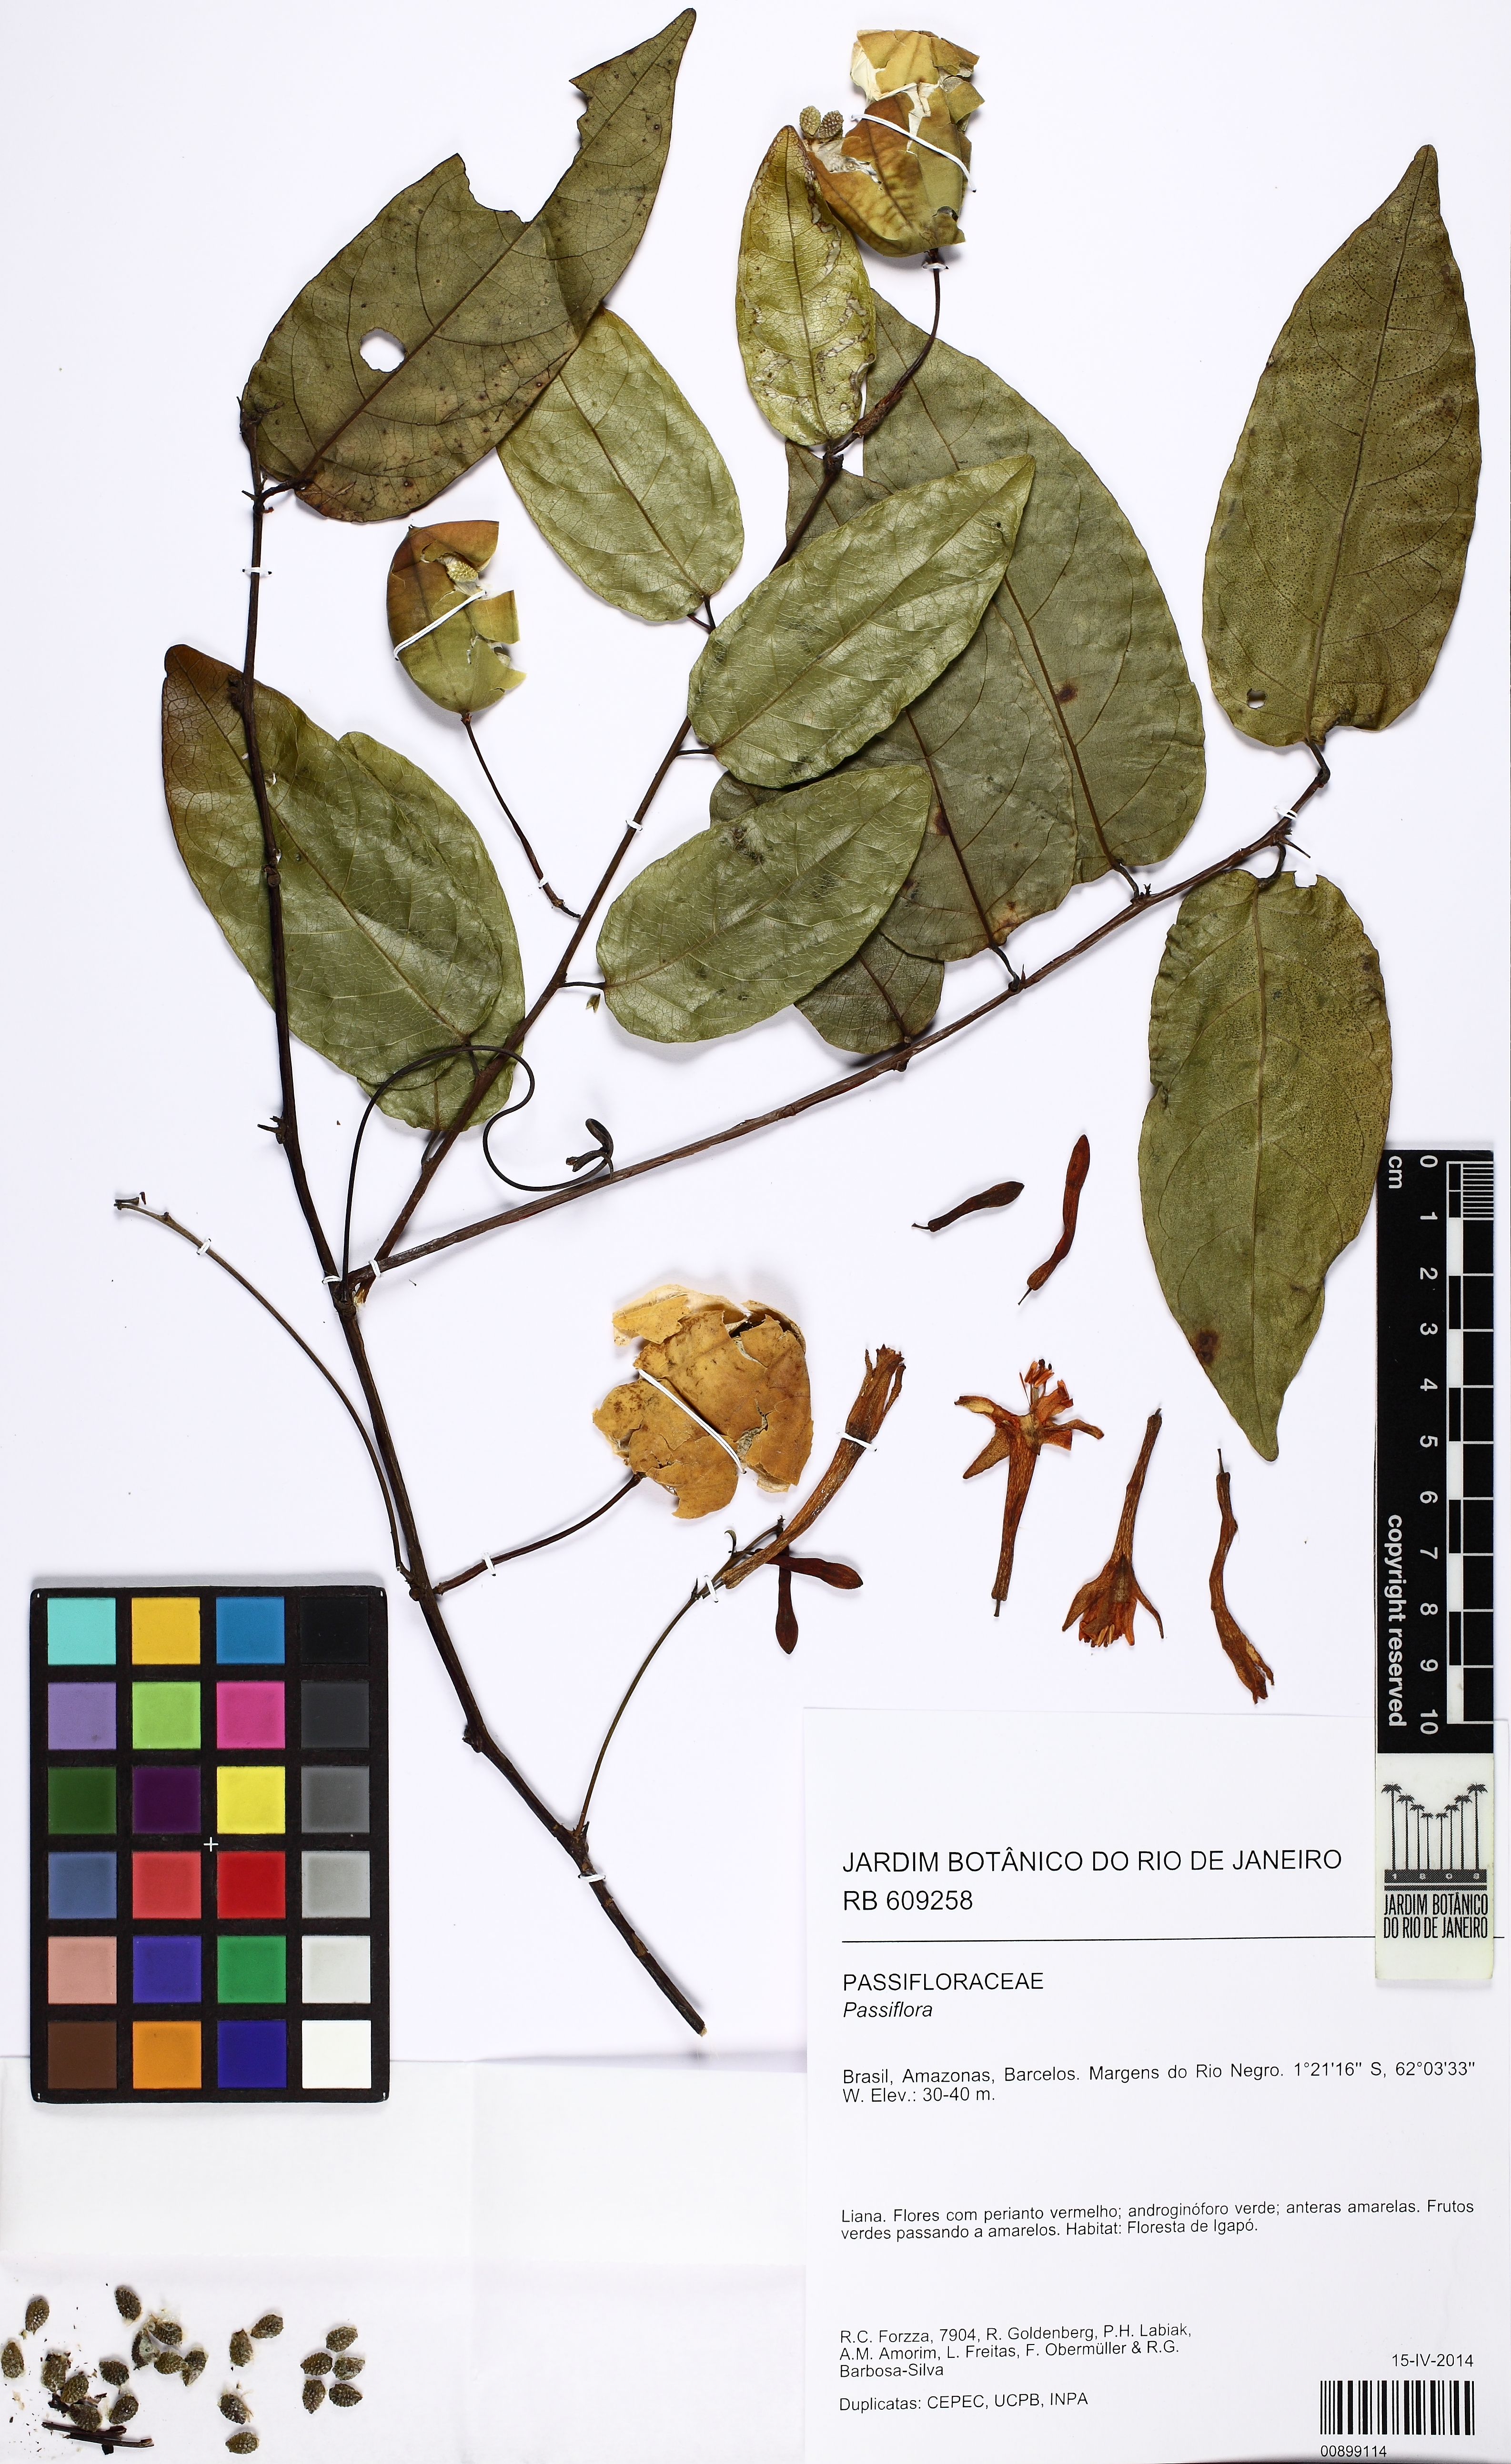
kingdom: Plantae
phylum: Tracheophyta
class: Magnoliopsida
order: Malpighiales
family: Passifloraceae
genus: Passiflora
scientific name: Passiflora spinosa
